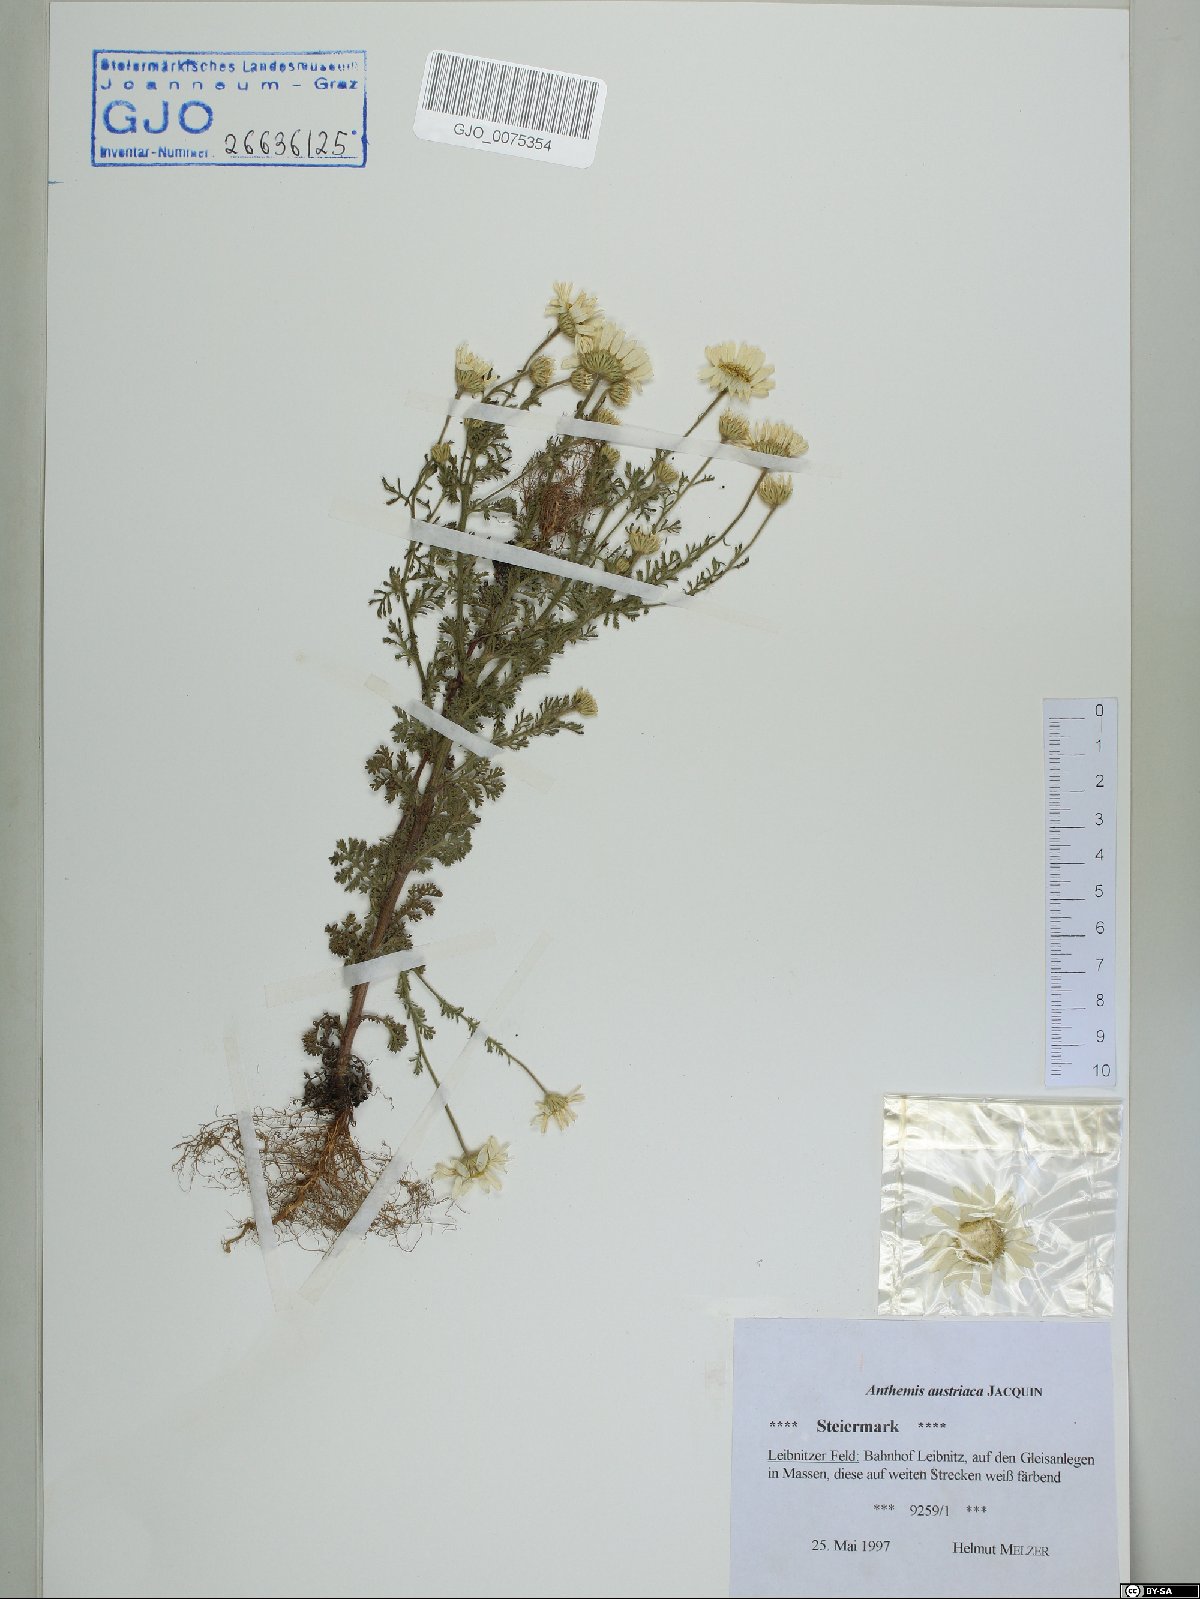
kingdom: Plantae
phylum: Tracheophyta
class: Magnoliopsida
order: Asterales
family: Asteraceae
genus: Cota
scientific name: Cota austriaca
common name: Austrian chamomile
